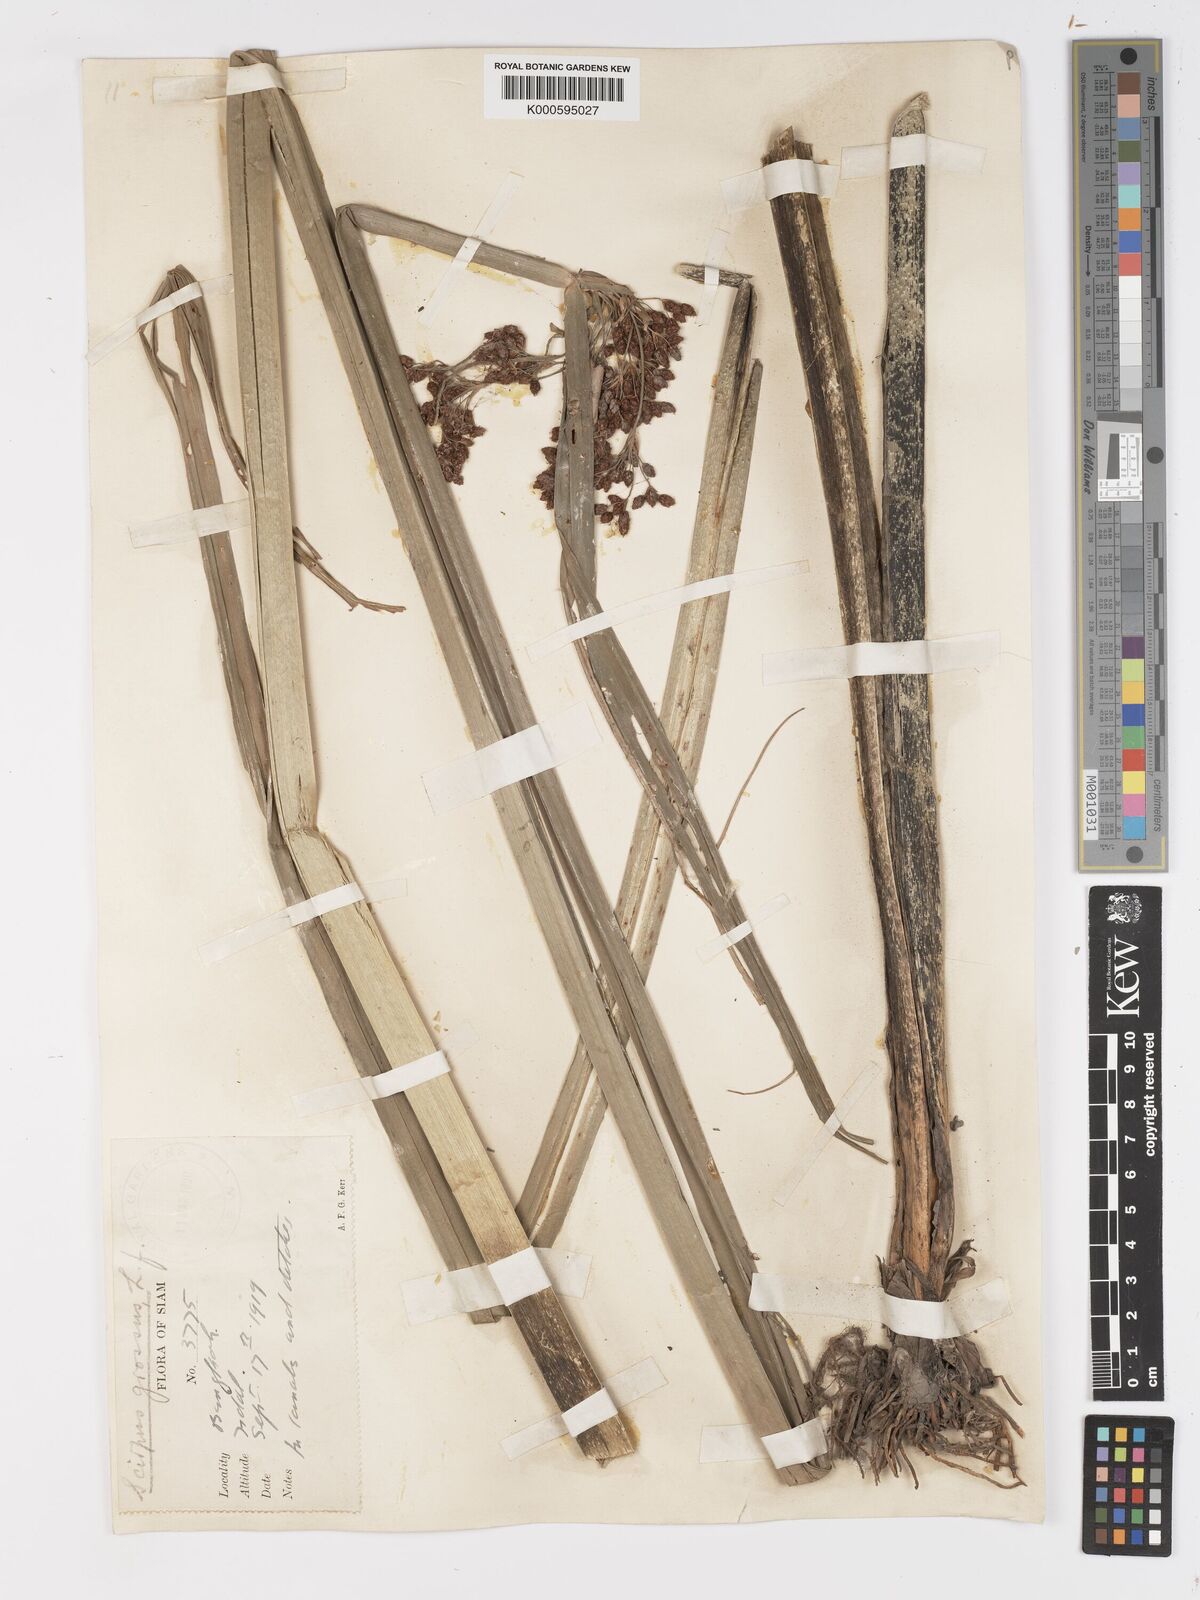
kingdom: Plantae
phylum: Tracheophyta
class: Liliopsida
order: Poales
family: Cyperaceae
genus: Actinoscirpus
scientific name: Actinoscirpus grossus
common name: Giant bur rush
